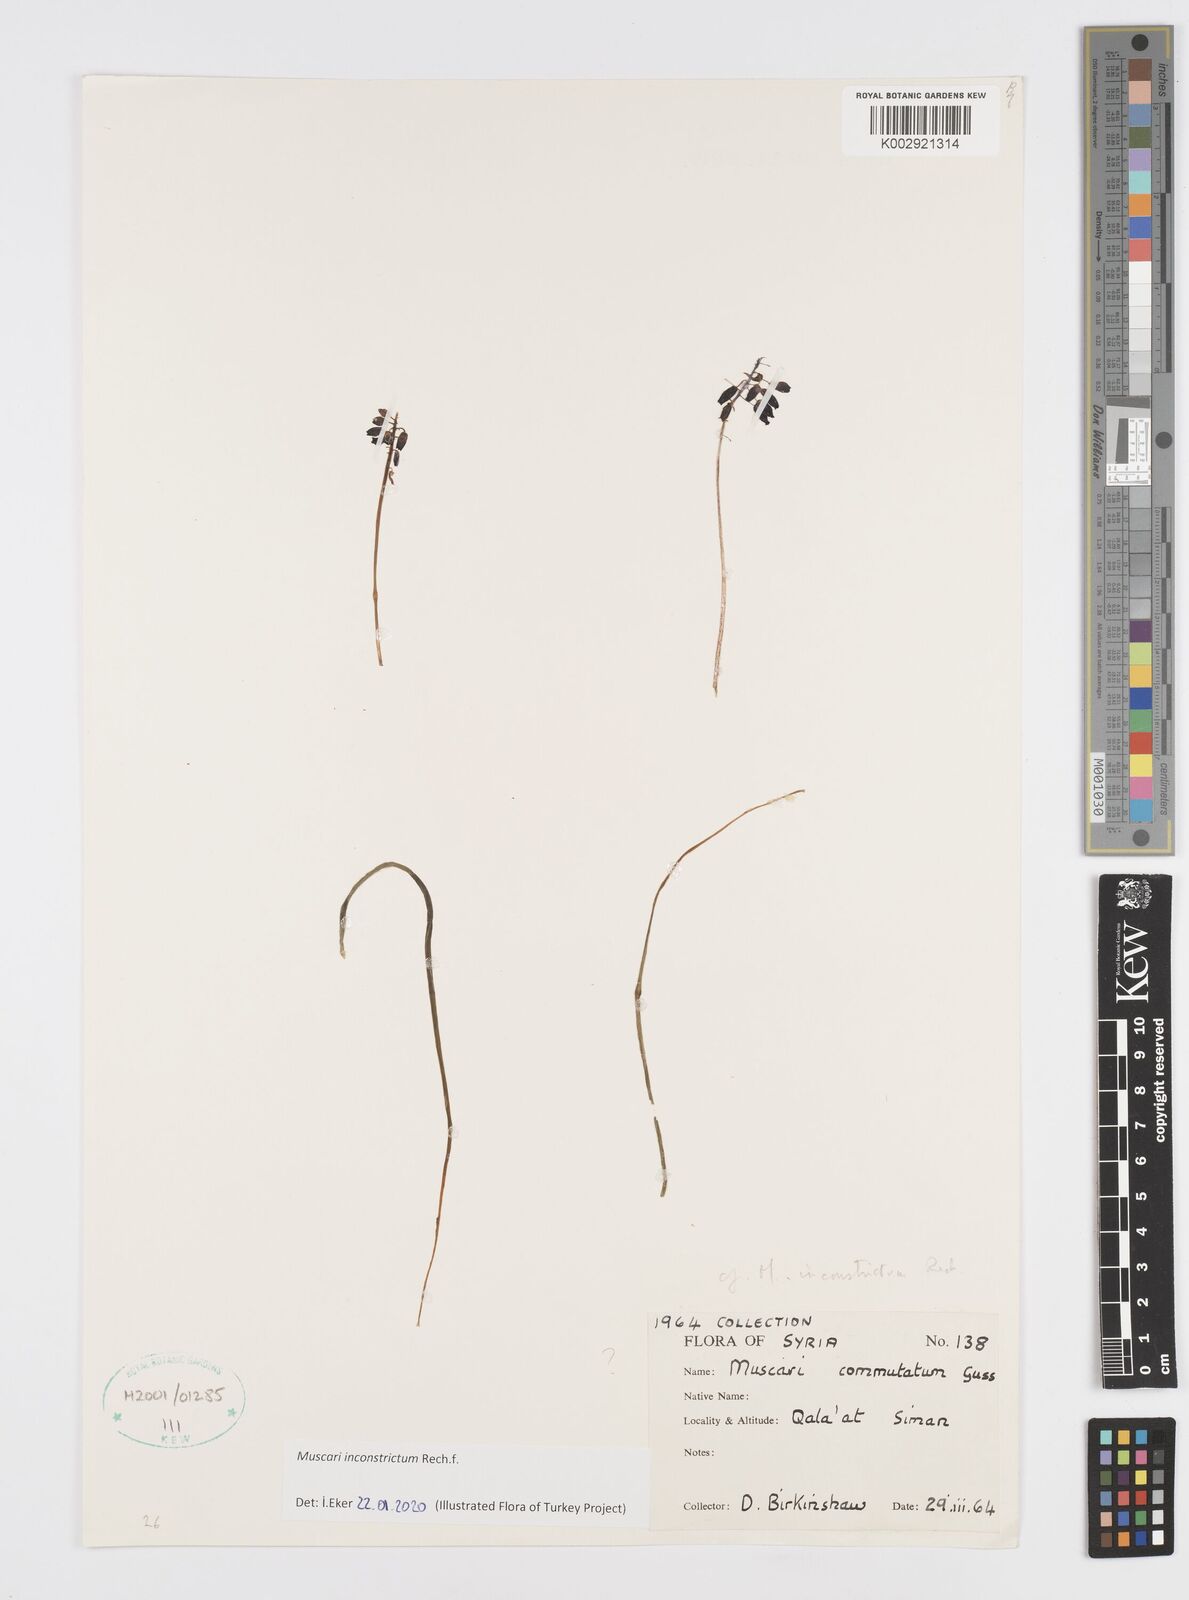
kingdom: Plantae
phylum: Tracheophyta
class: Liliopsida
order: Asparagales
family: Asparagaceae
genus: Muscari
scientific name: Muscari inconstrictum
